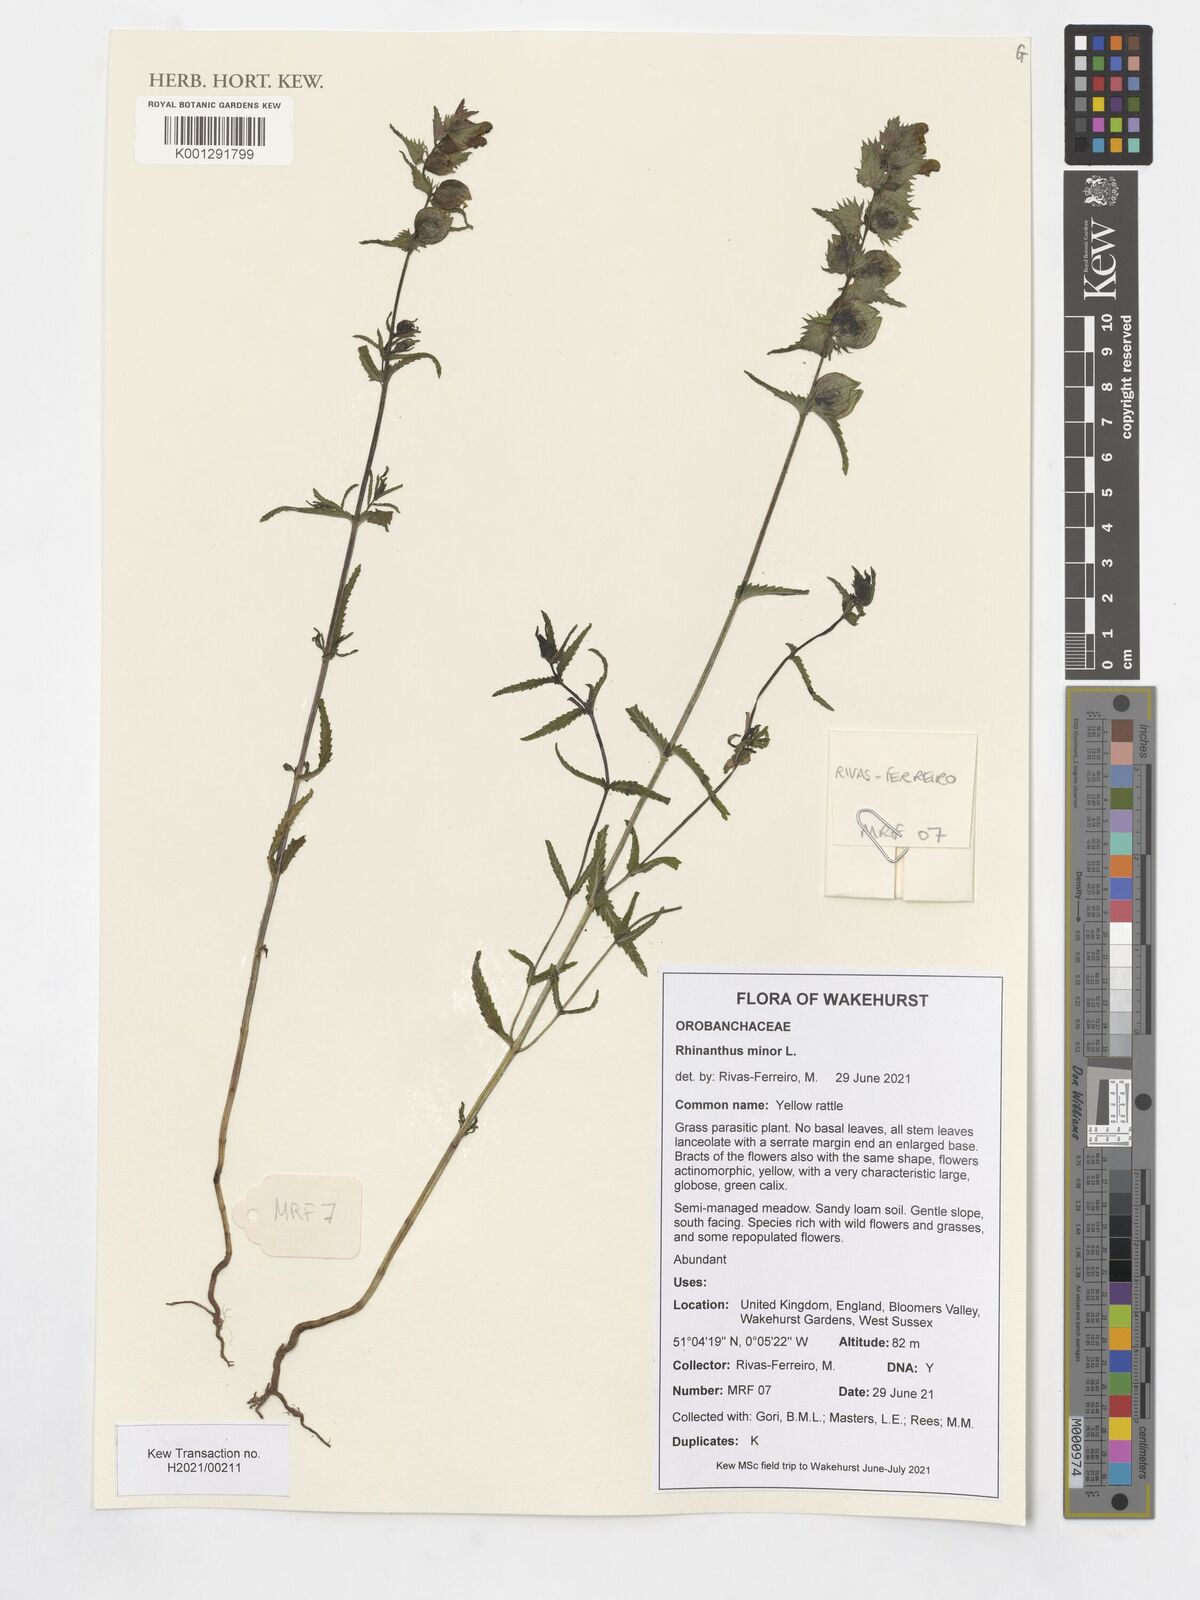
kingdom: Plantae
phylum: Tracheophyta
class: Magnoliopsida
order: Lamiales
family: Orobanchaceae
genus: Rhinanthus
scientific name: Rhinanthus minor
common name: Yellow-rattle
